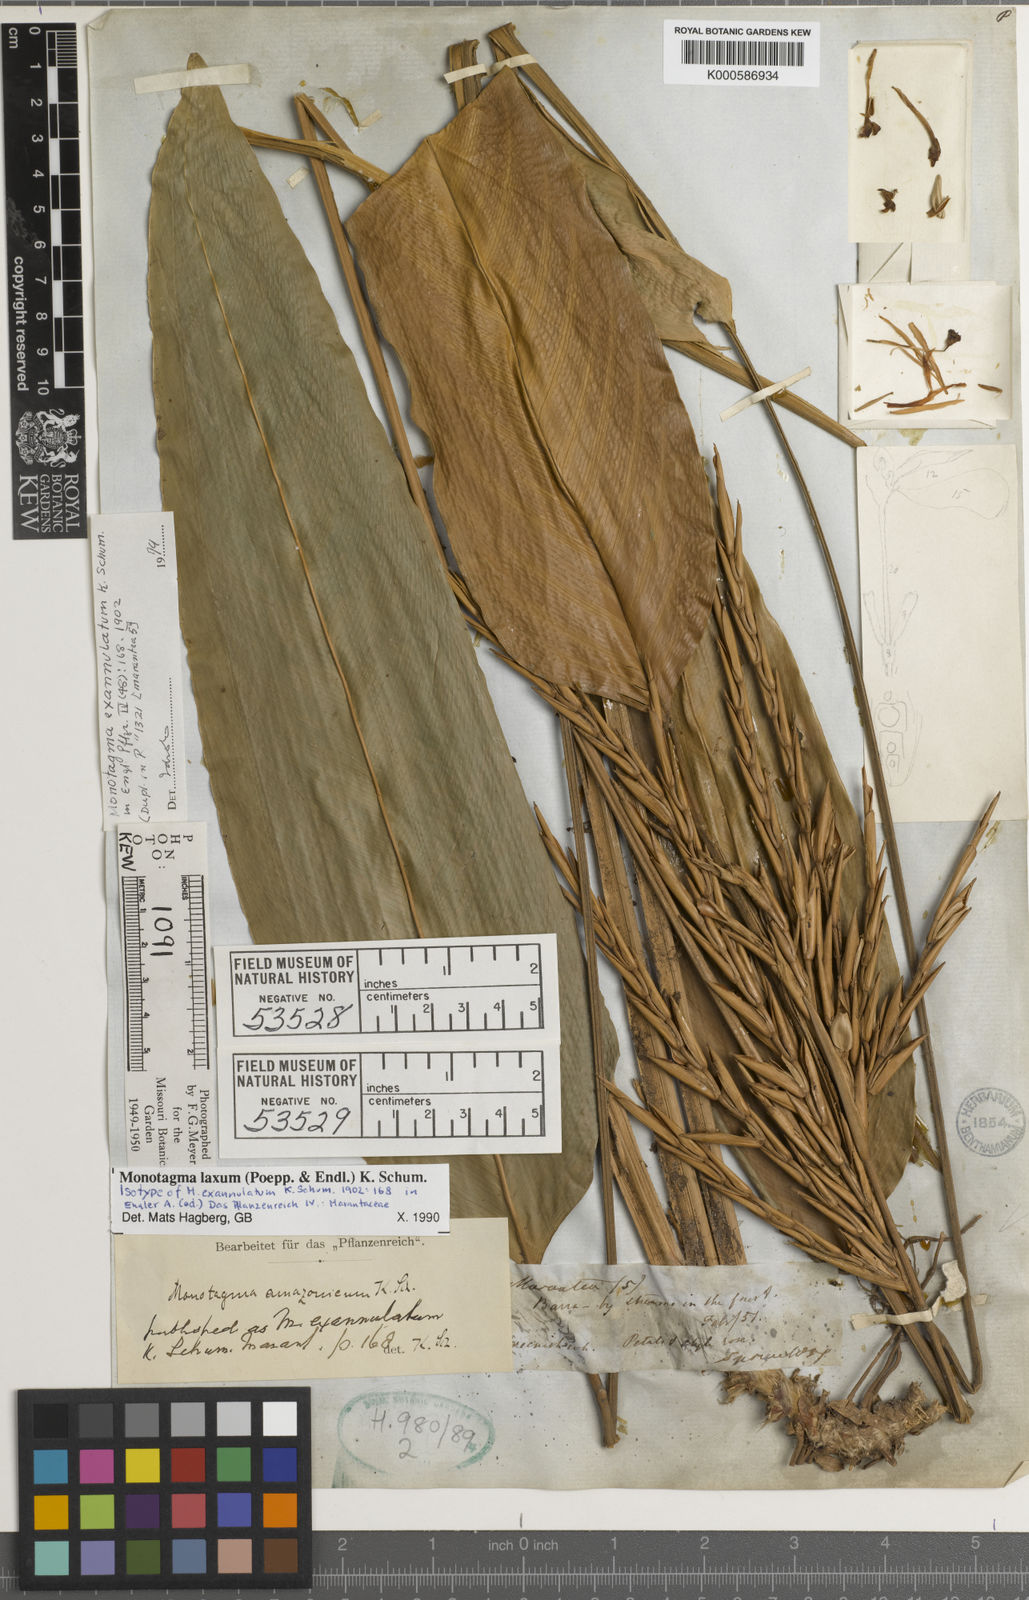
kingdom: Plantae
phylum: Tracheophyta
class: Liliopsida
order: Zingiberales
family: Marantaceae
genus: Monotagma
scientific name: Monotagma laxum
